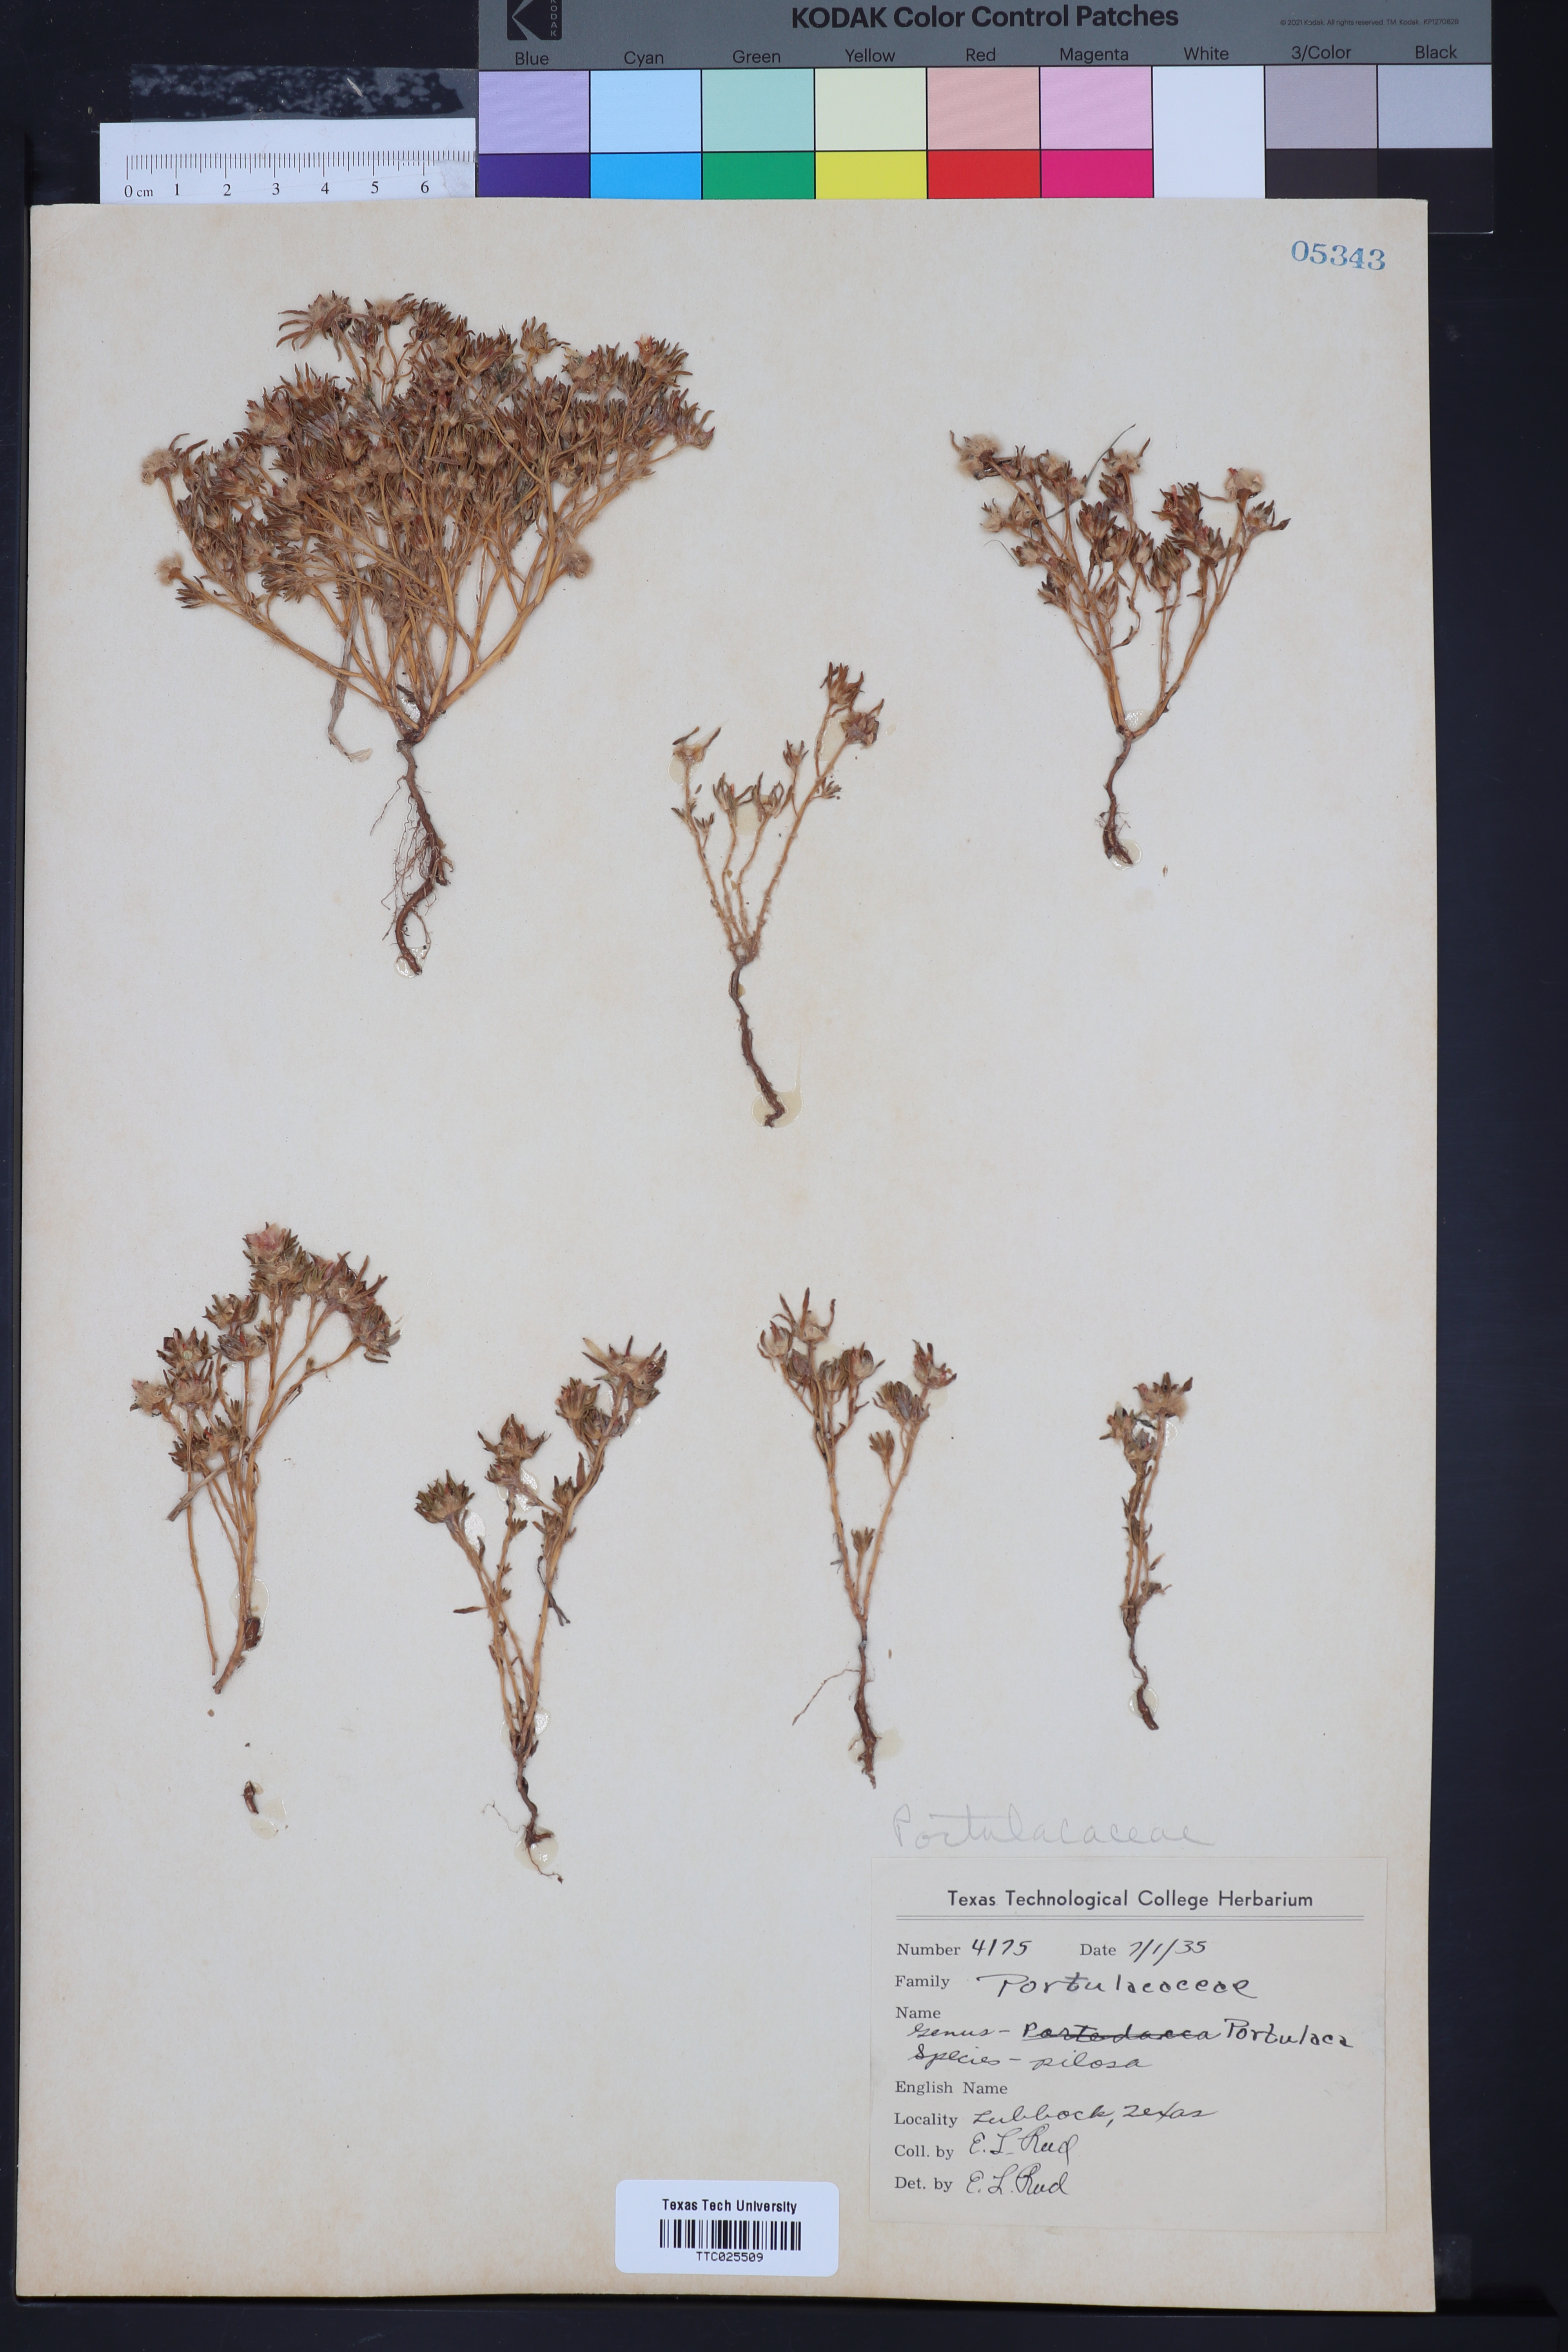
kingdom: Plantae
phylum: Tracheophyta
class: Magnoliopsida
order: Caryophyllales
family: Portulacaceae
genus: Portulaca
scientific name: Portulaca pilosa
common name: Kiss me quick
